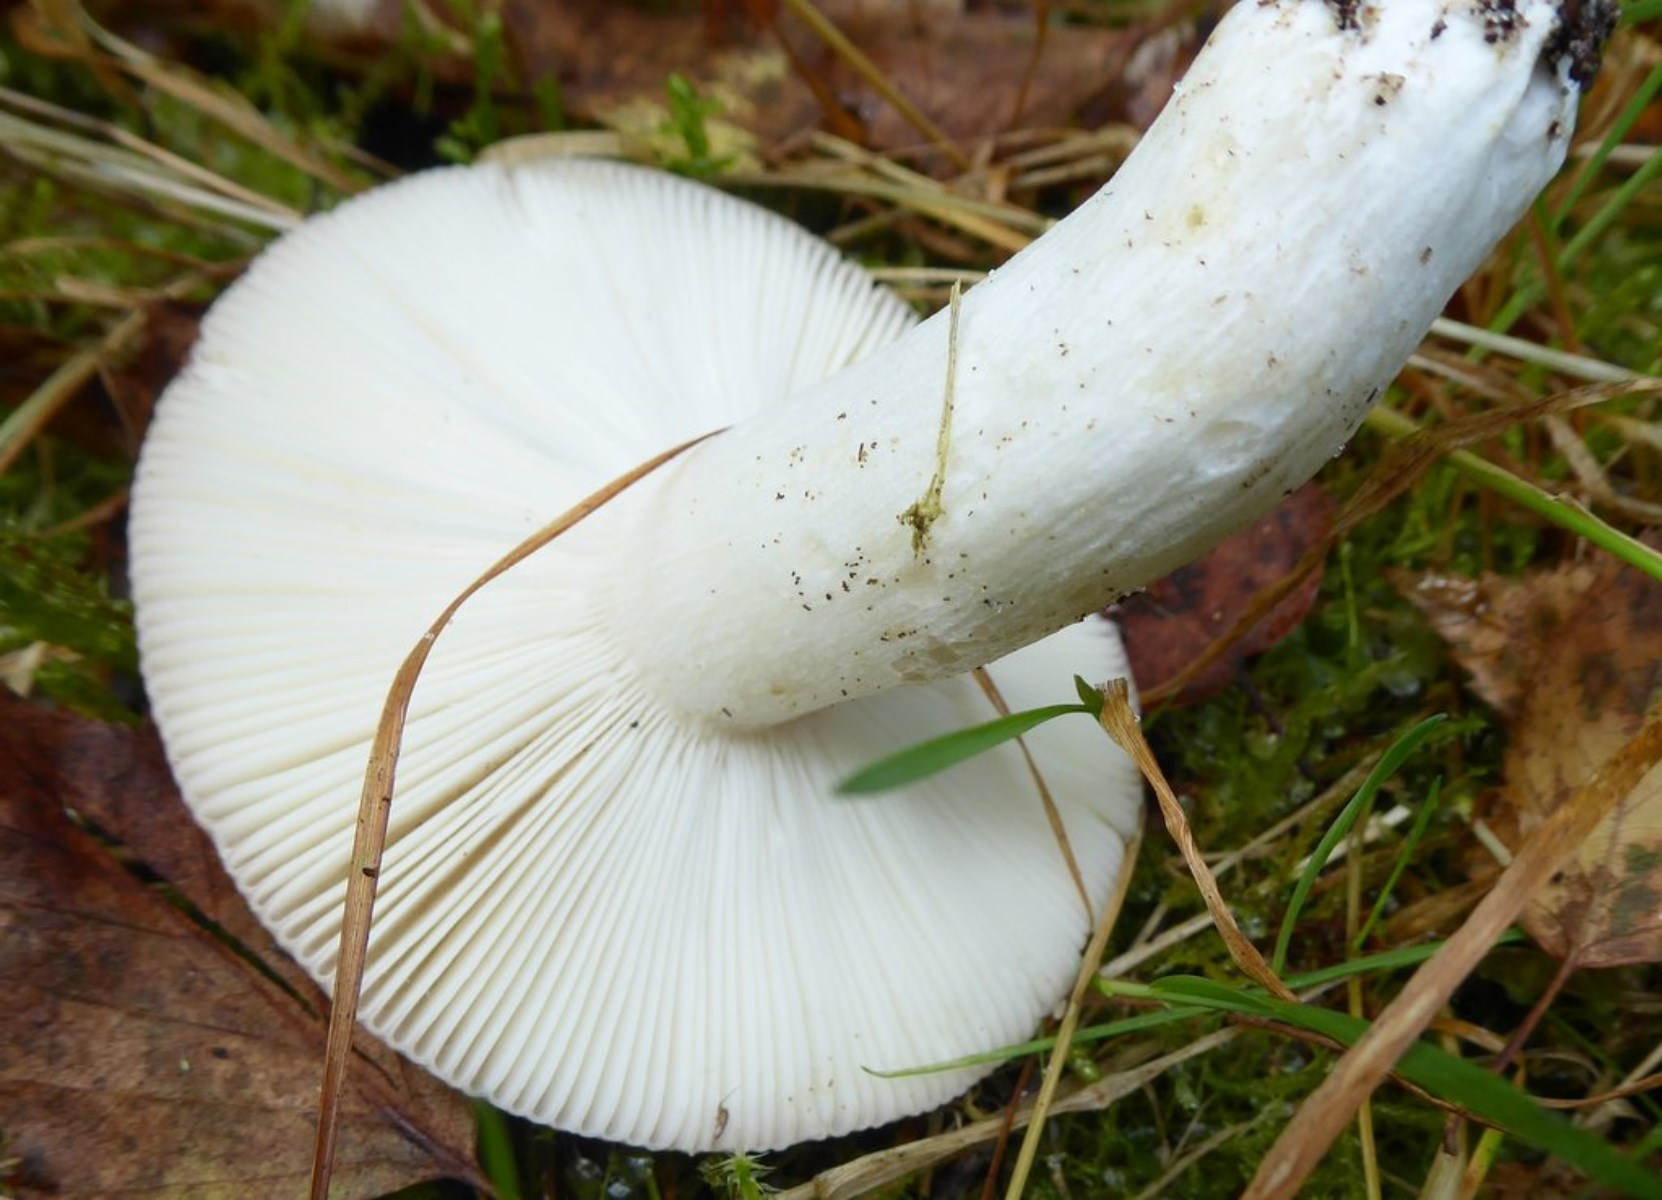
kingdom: Fungi
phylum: Basidiomycota
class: Agaricomycetes
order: Russulales
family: Russulaceae
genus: Russula
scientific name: Russula vesca
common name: spiselig skørhat
